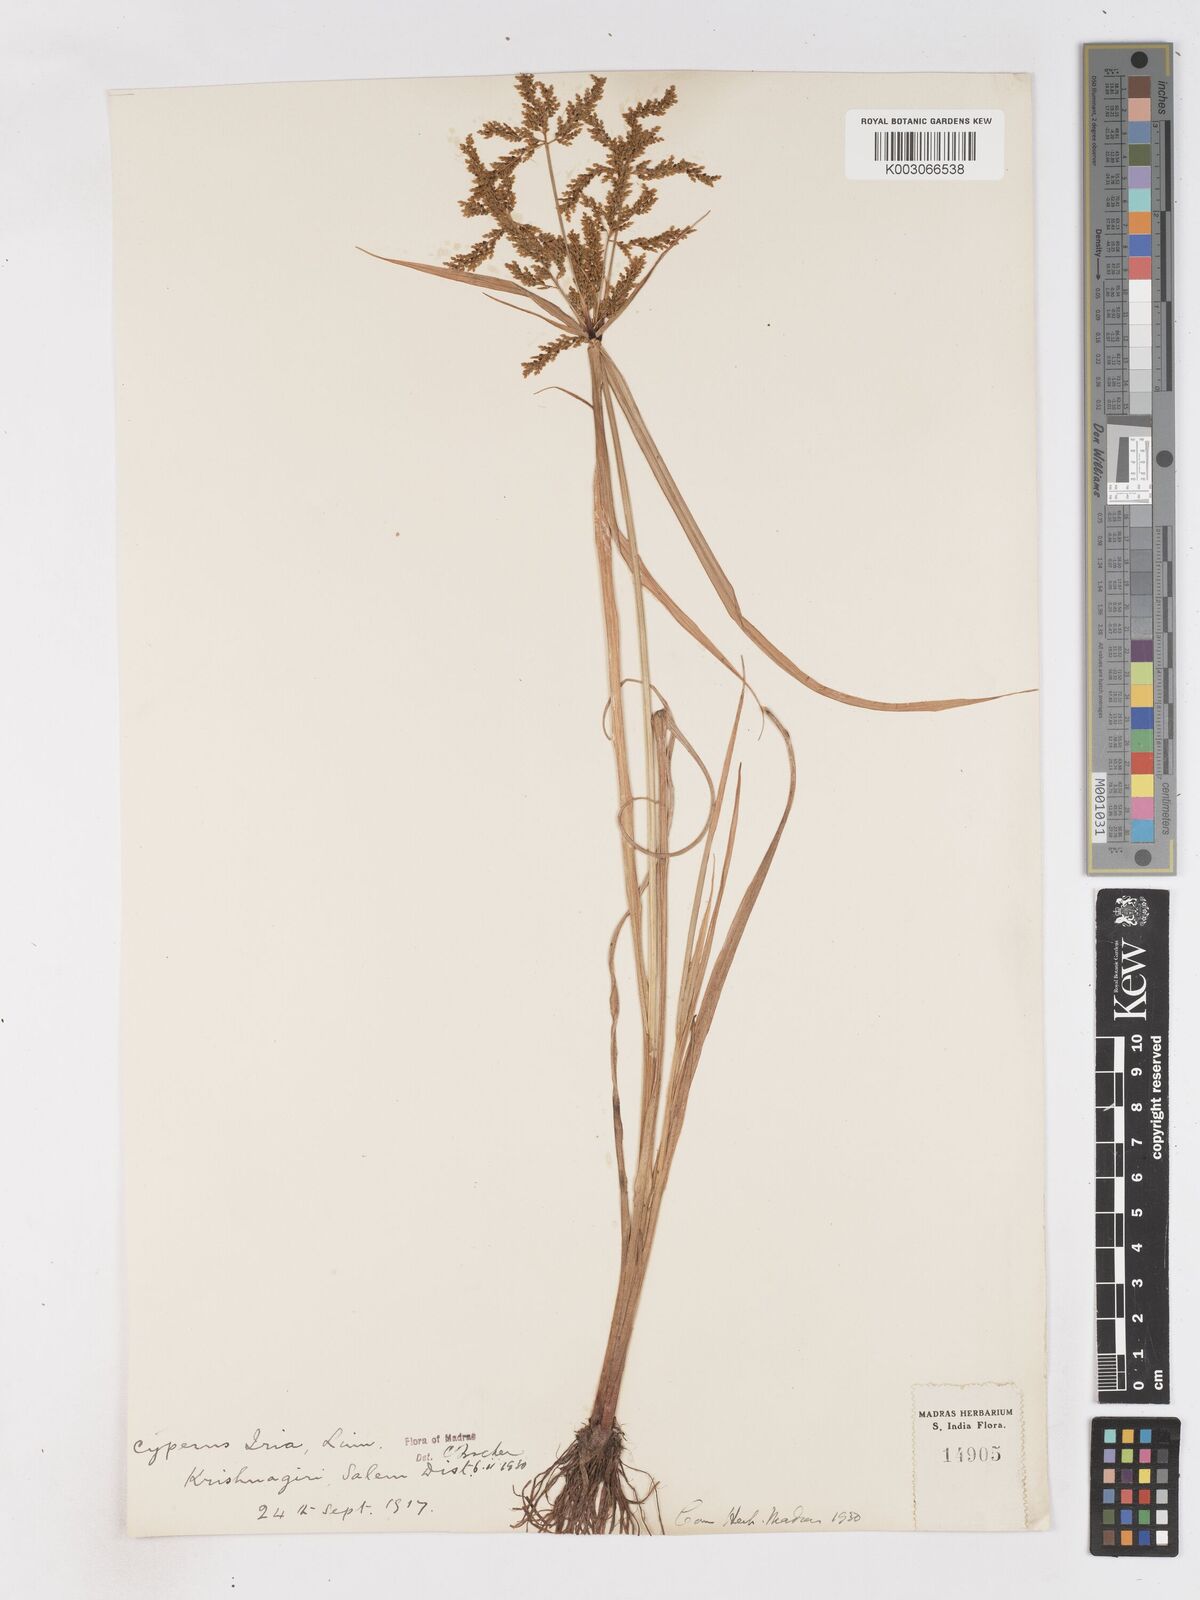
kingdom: Plantae
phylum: Tracheophyta
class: Liliopsida
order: Poales
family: Cyperaceae
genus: Cyperus
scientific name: Cyperus iria
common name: Ricefield flatsedge
